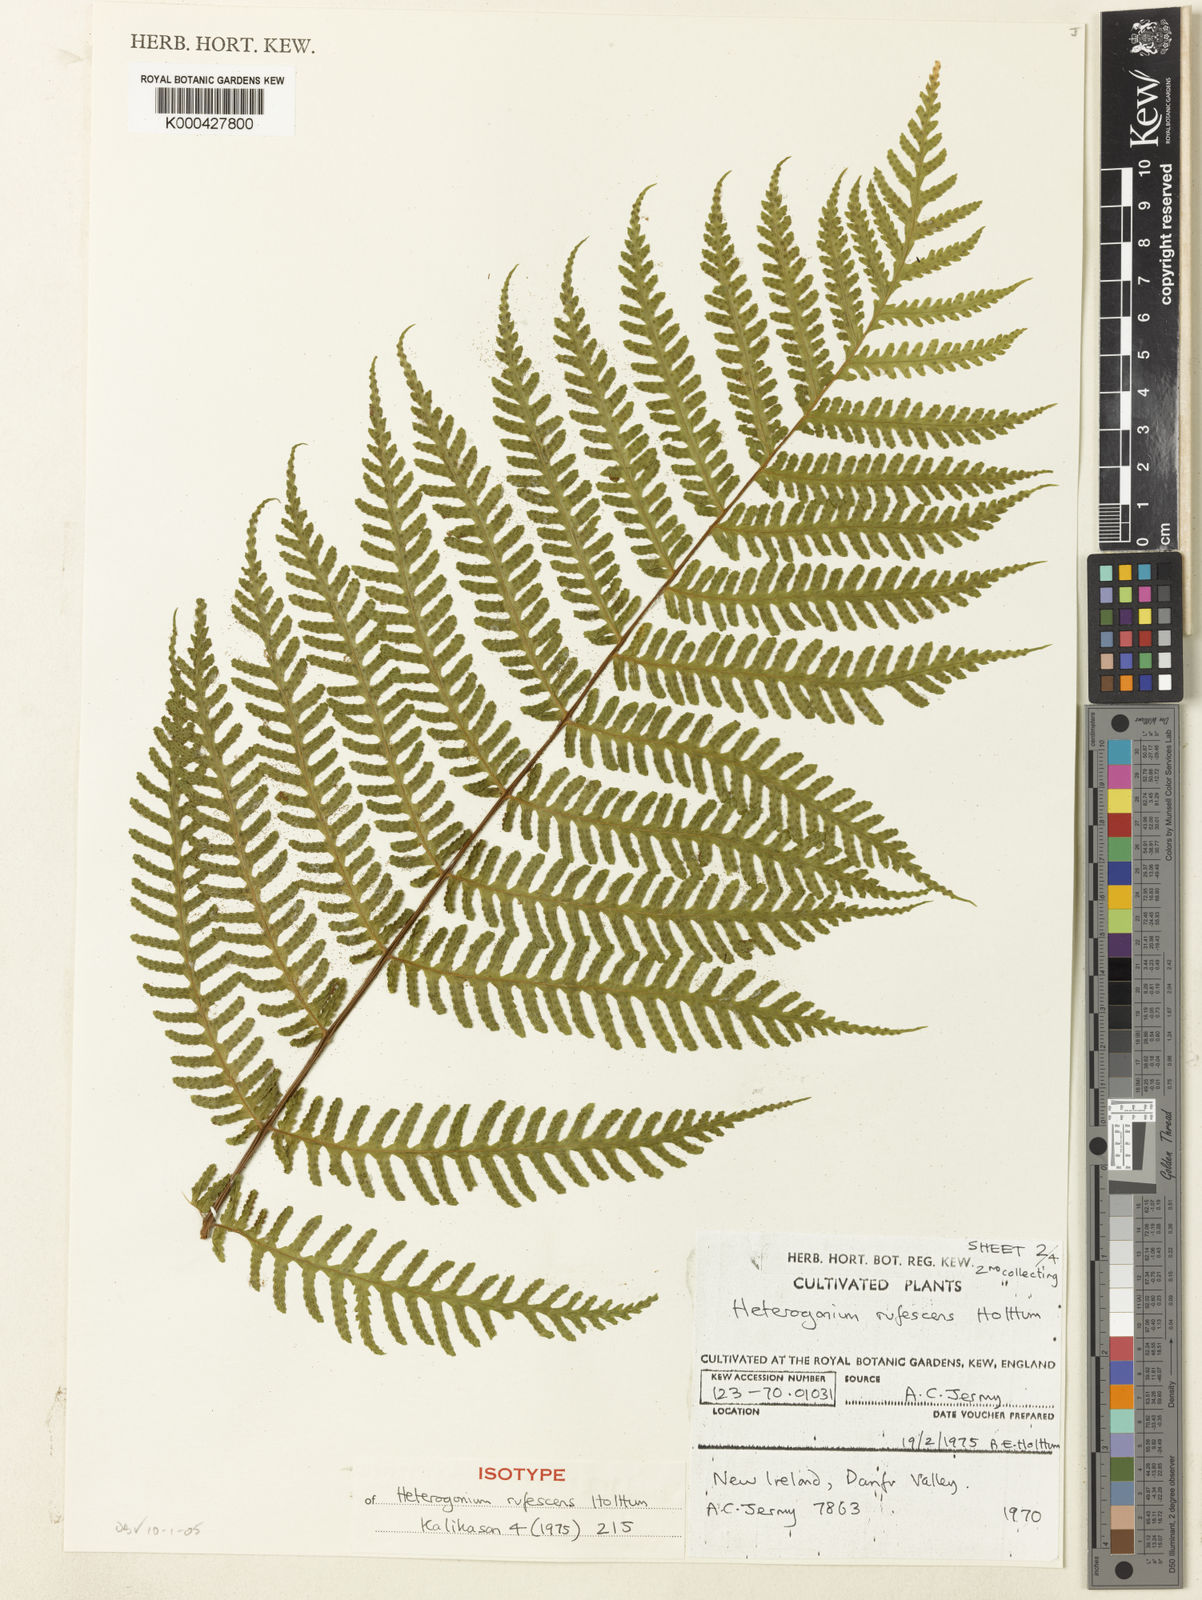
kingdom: Plantae
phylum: Tracheophyta
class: Polypodiopsida
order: Polypodiales
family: Tectariaceae
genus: Tectaria
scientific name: Tectaria jermyi
